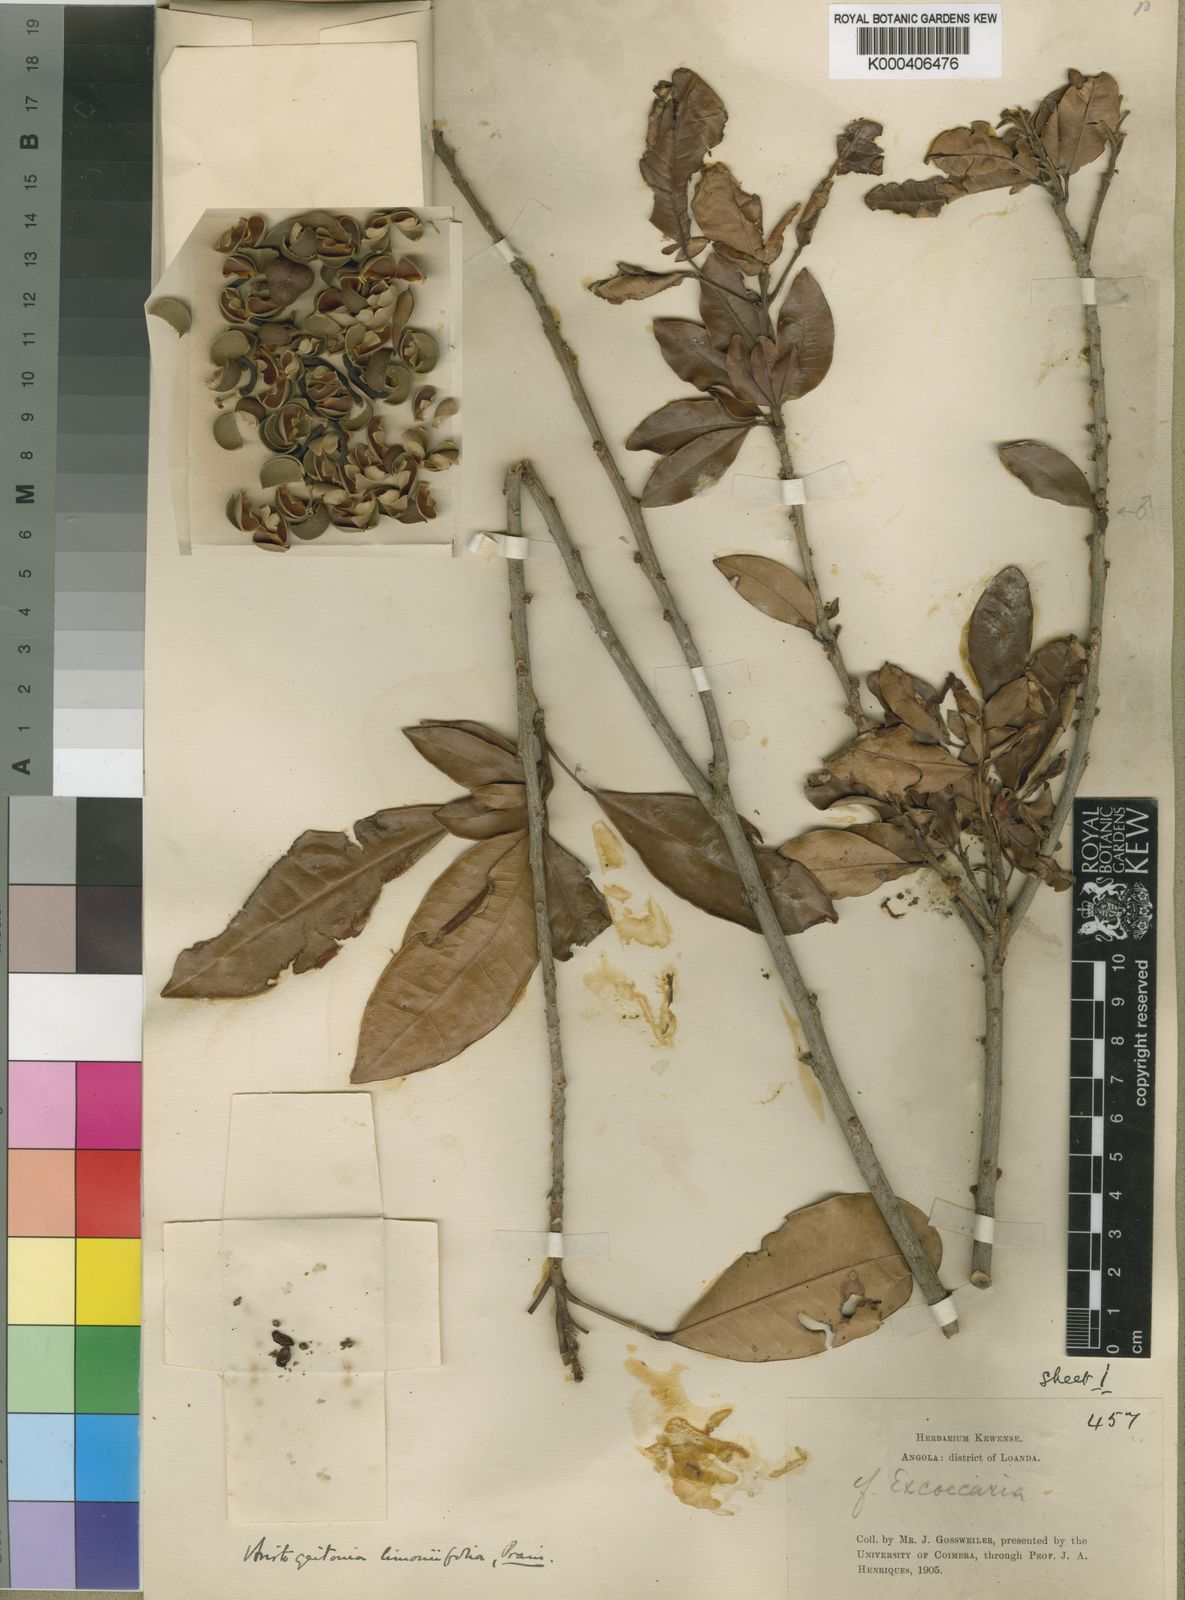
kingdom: Plantae
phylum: Tracheophyta
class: Magnoliopsida
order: Malpighiales
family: Picrodendraceae
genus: Aristogeitonia
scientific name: Aristogeitonia limoniifolia
